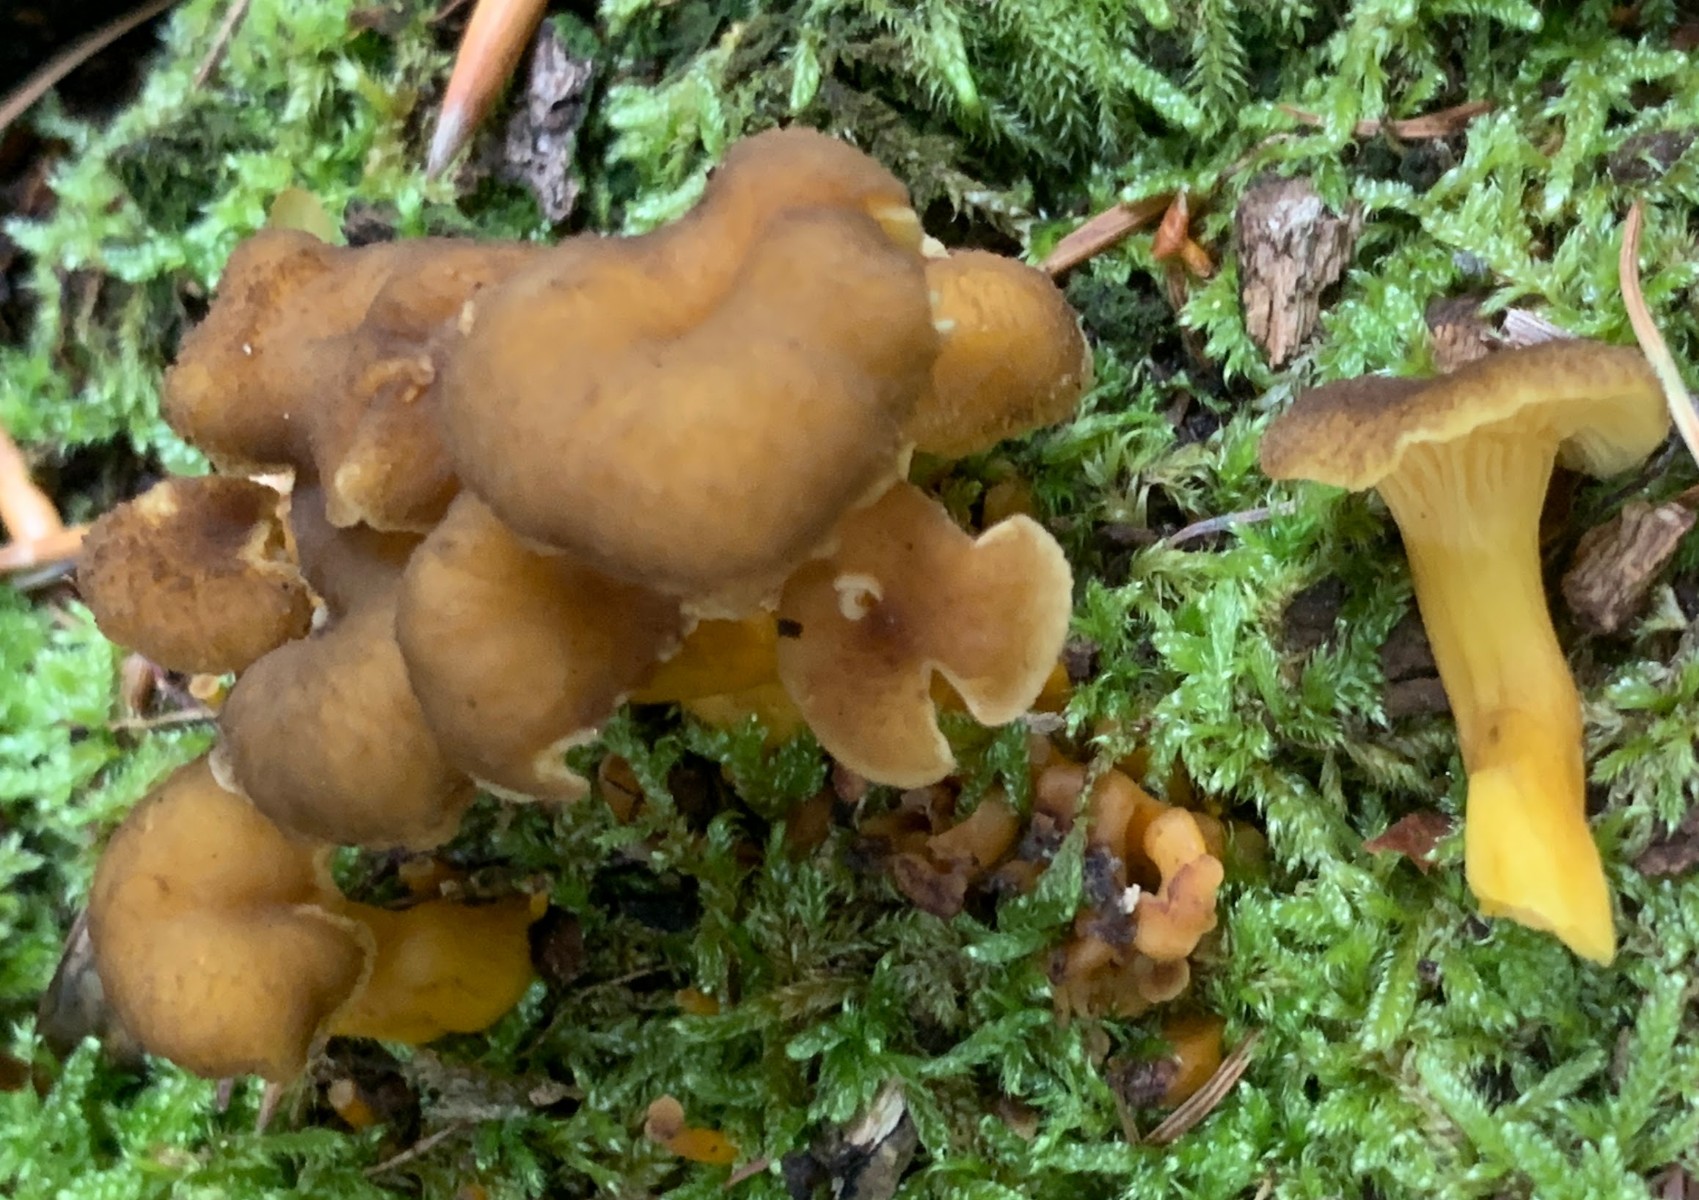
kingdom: Fungi
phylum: Basidiomycota
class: Agaricomycetes
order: Cantharellales
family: Hydnaceae
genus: Craterellus
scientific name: Craterellus tubaeformis
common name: tragt-kantarel
